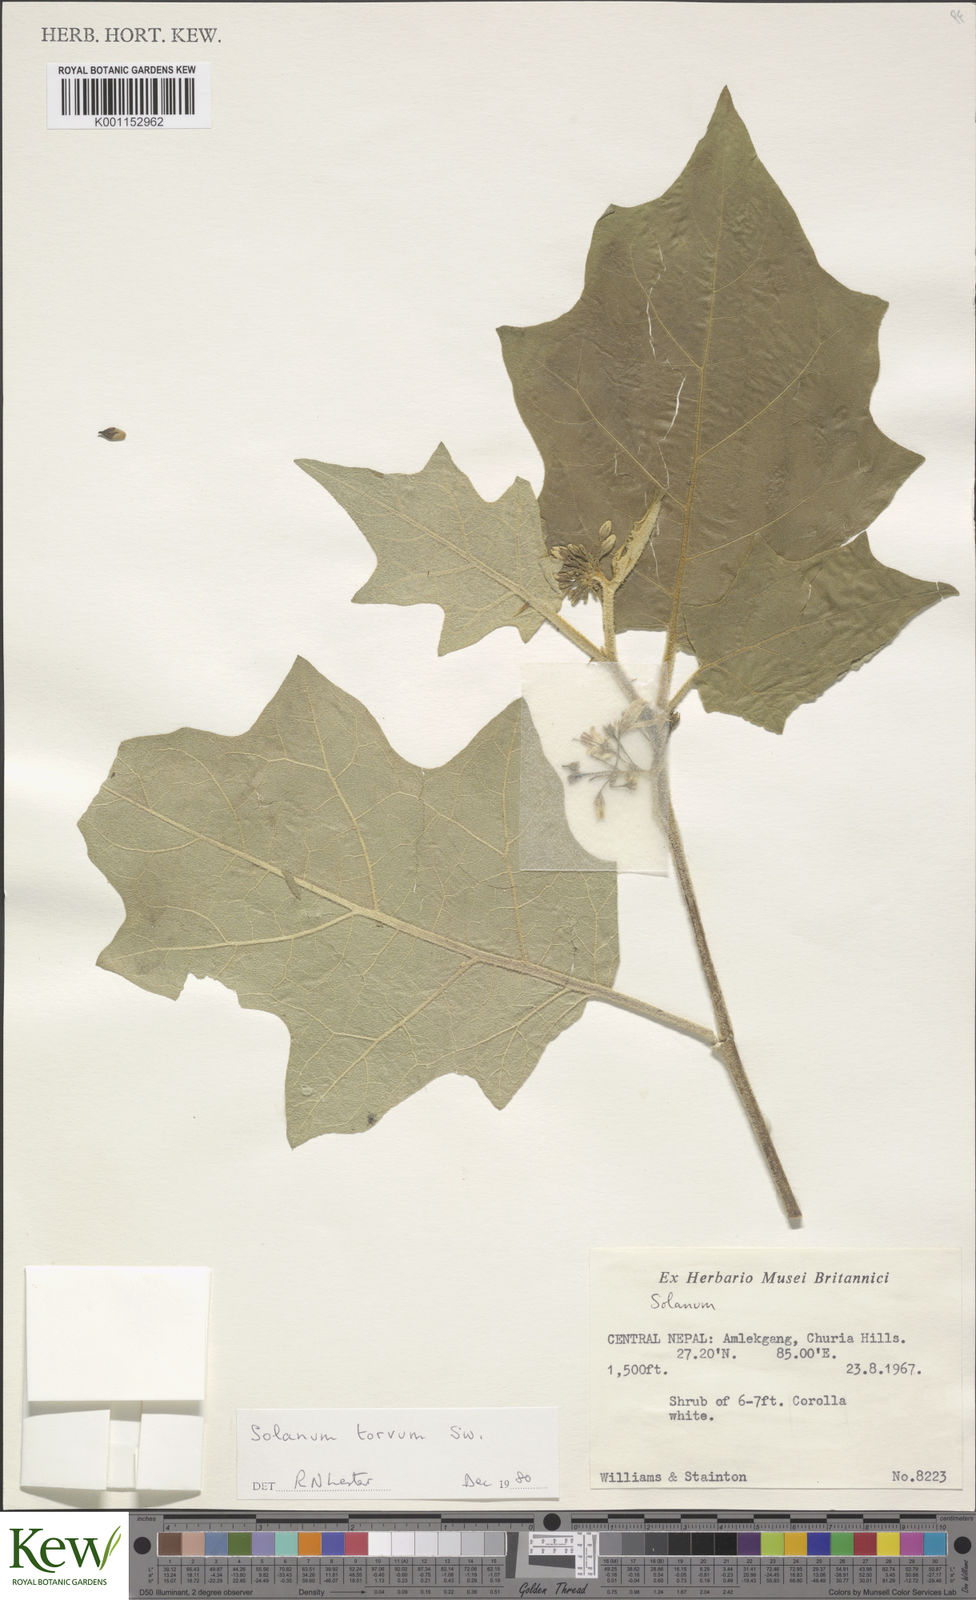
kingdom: Plantae
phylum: Tracheophyta
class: Magnoliopsida
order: Solanales
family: Solanaceae
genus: Solanum
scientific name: Solanum torvum
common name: Turkey berry
